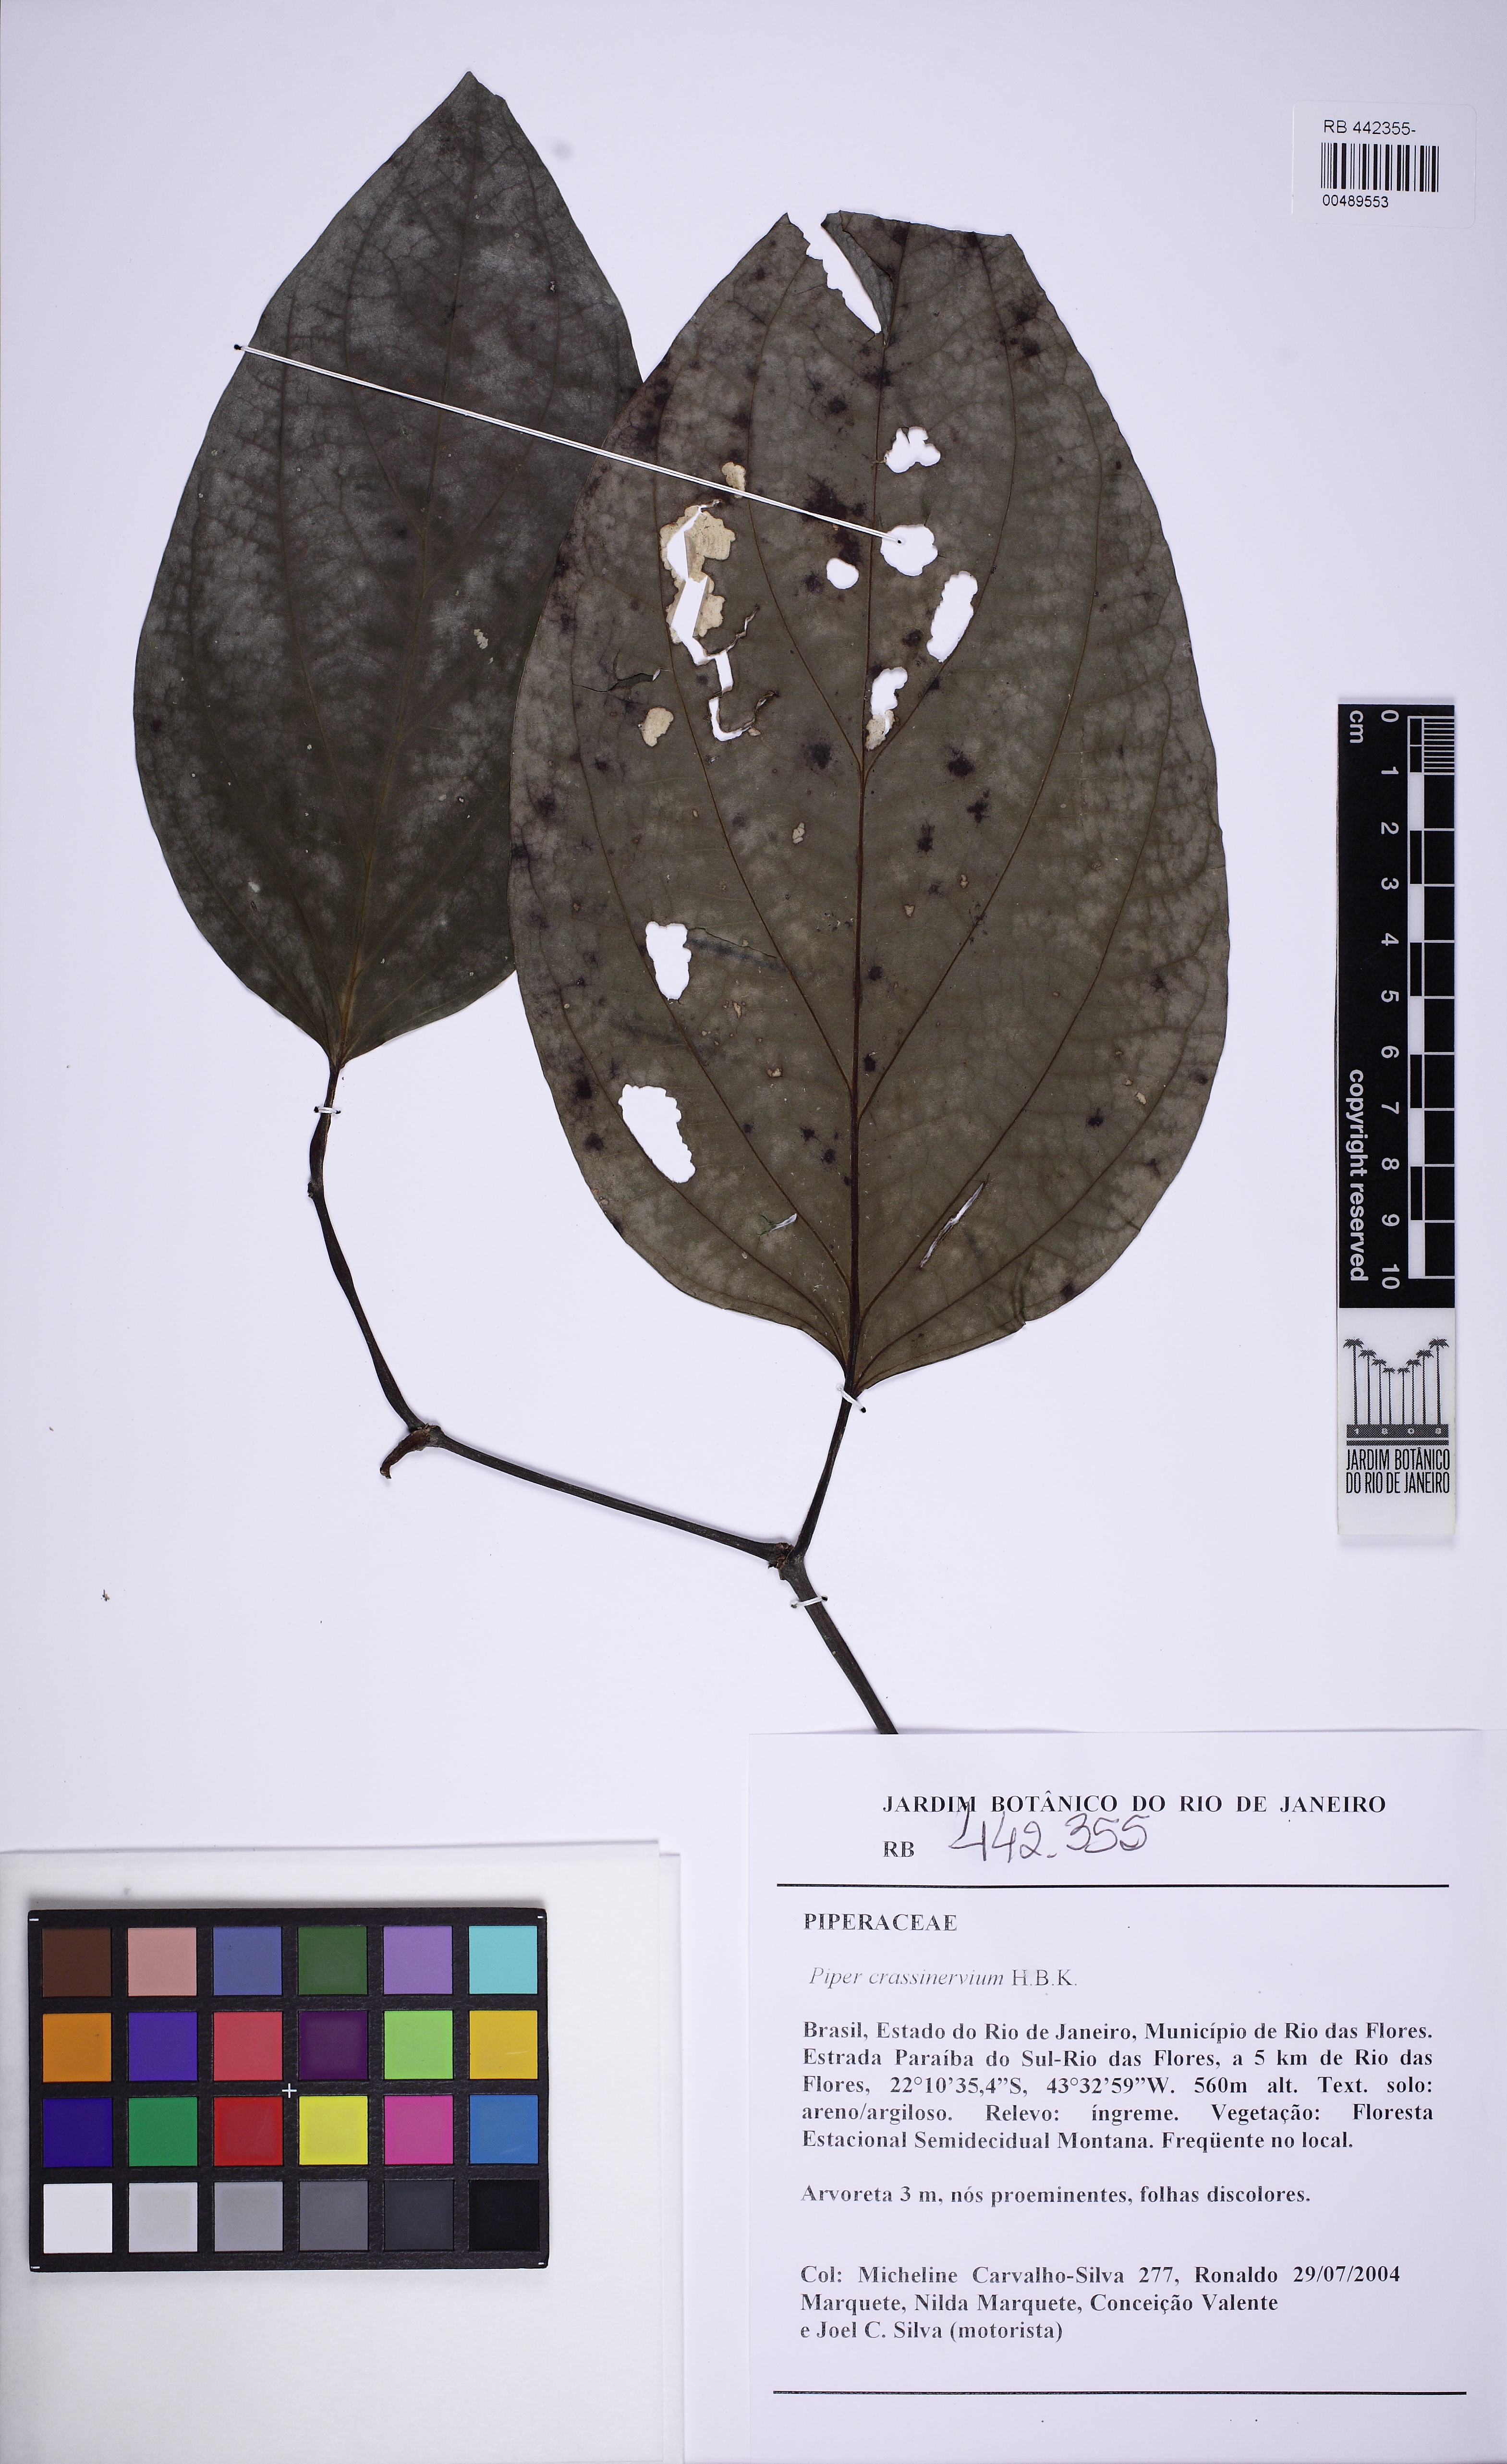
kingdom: Plantae
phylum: Tracheophyta
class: Magnoliopsida
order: Piperales
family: Piperaceae
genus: Piper
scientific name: Piper crassinervium
